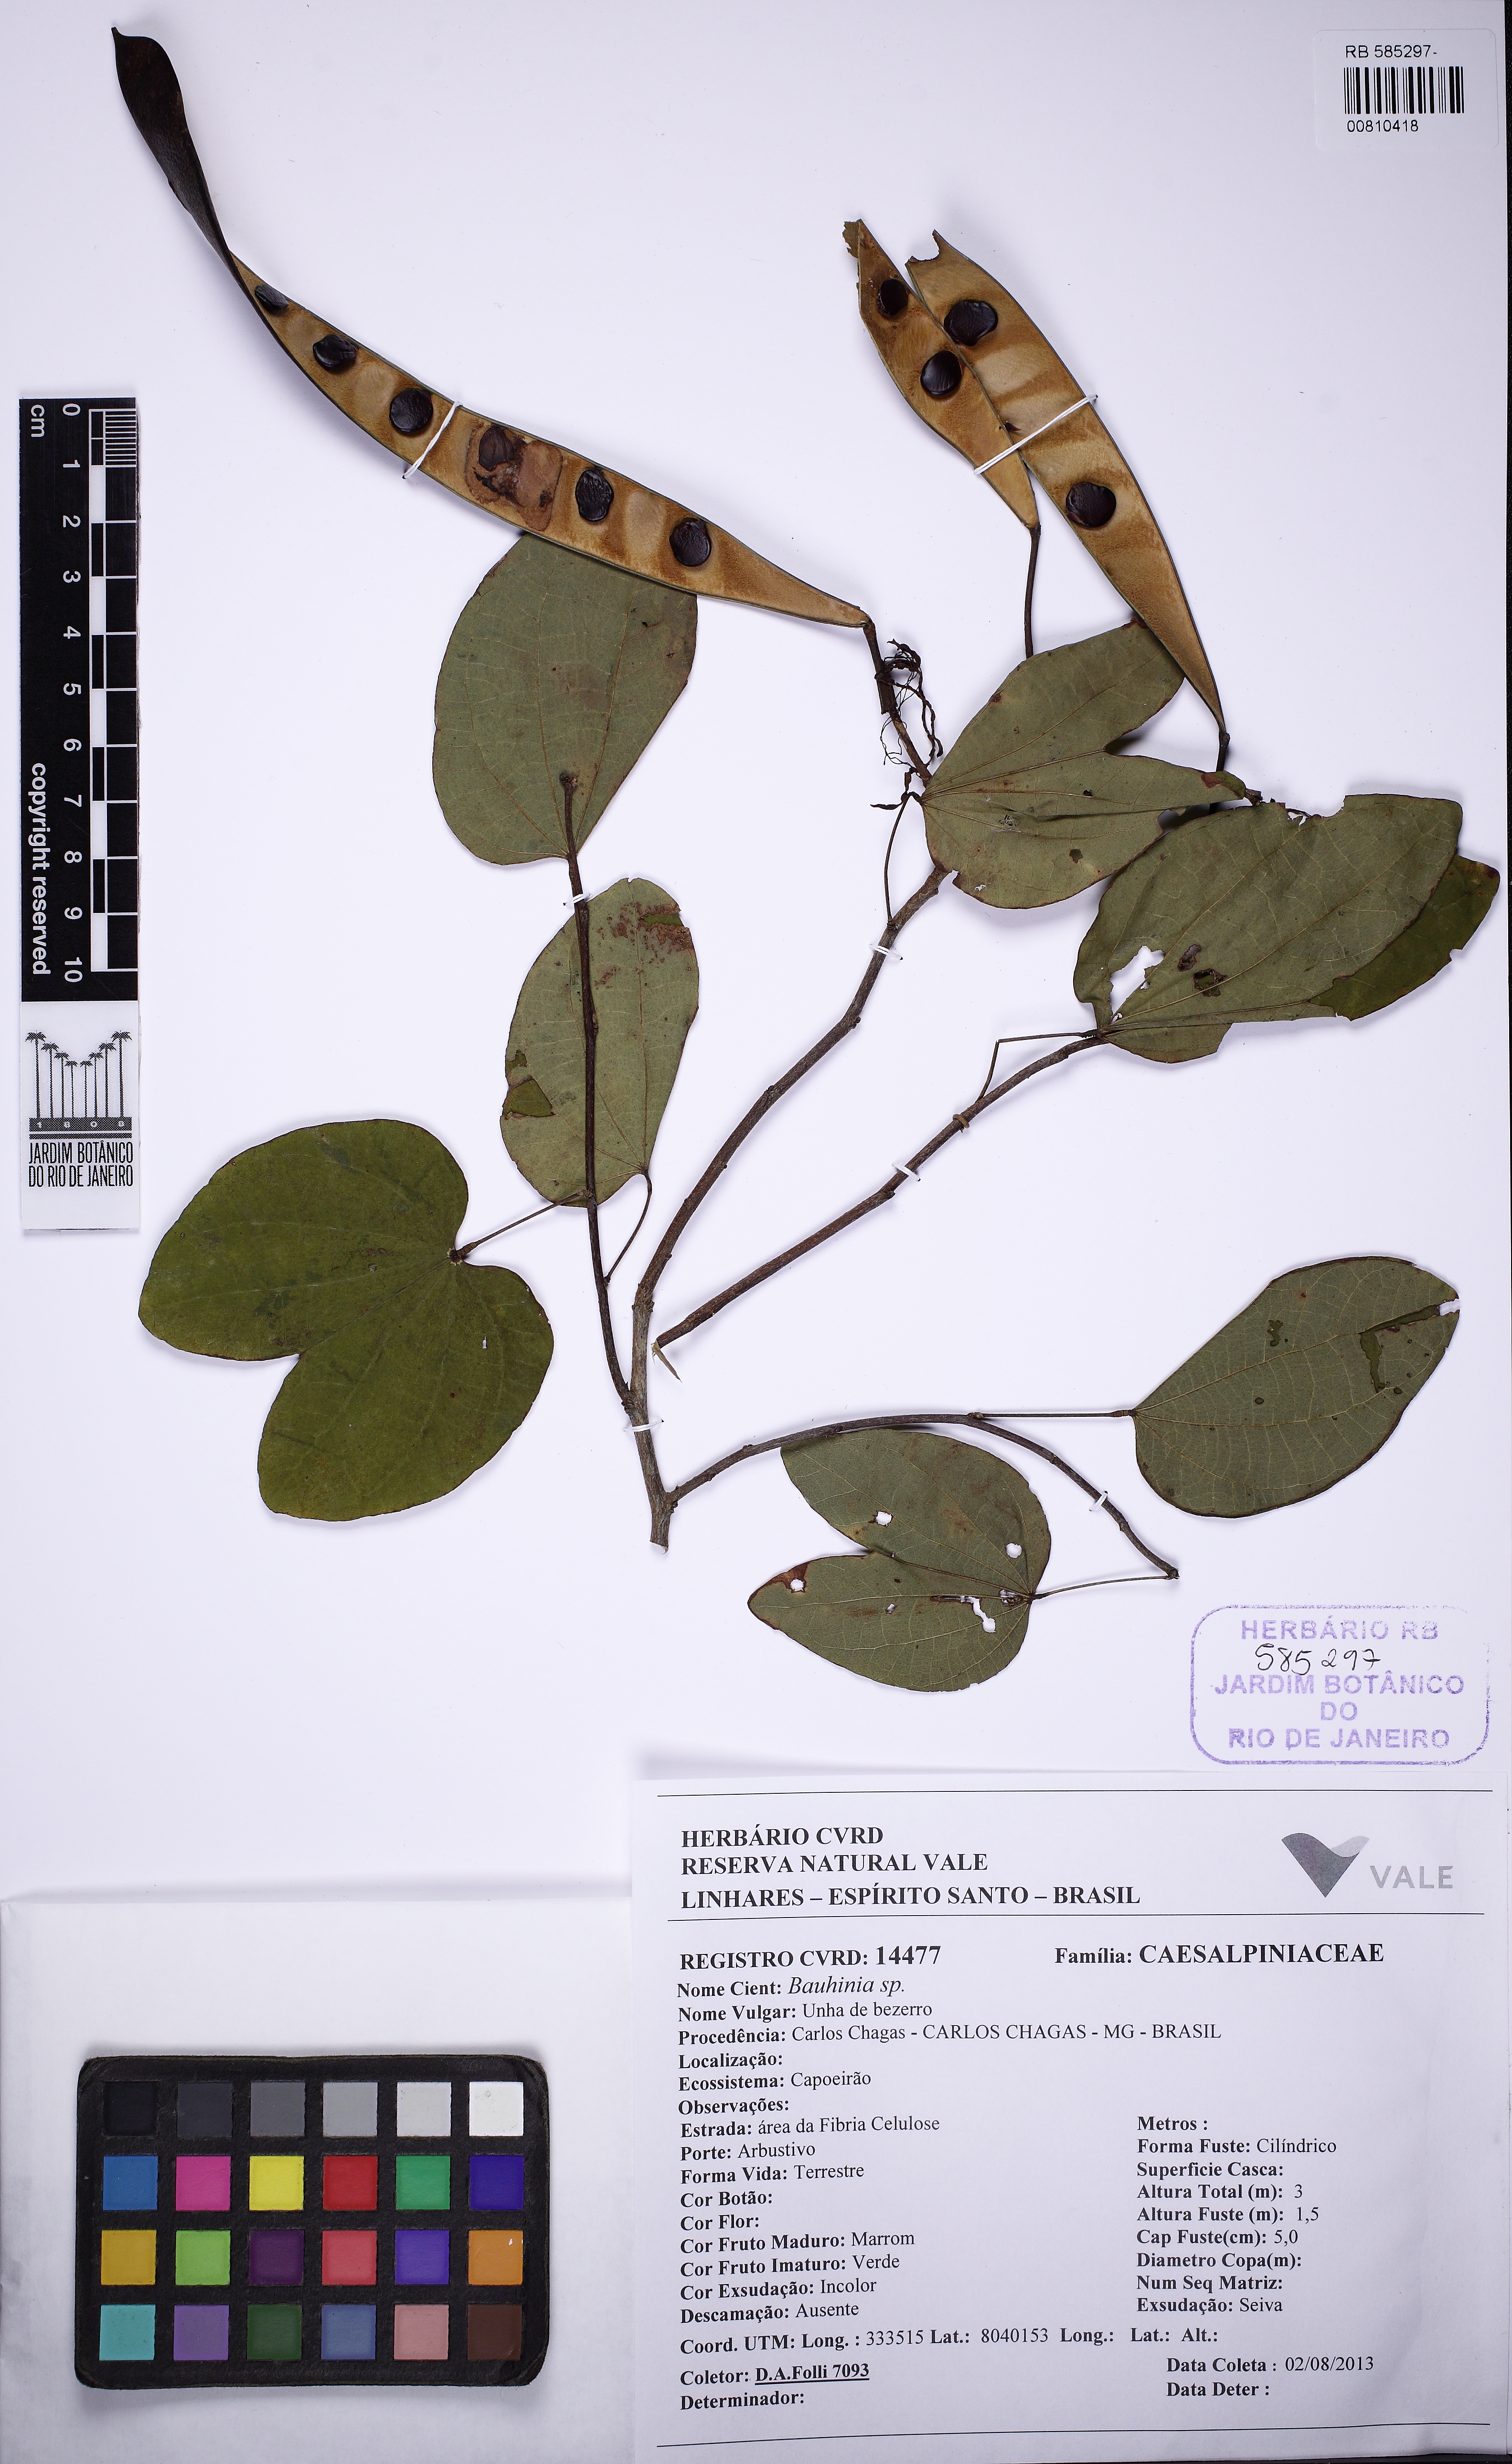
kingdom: Plantae
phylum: Tracheophyta
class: Magnoliopsida
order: Fabales
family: Fabaceae
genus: Bauhinia
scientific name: Bauhinia
